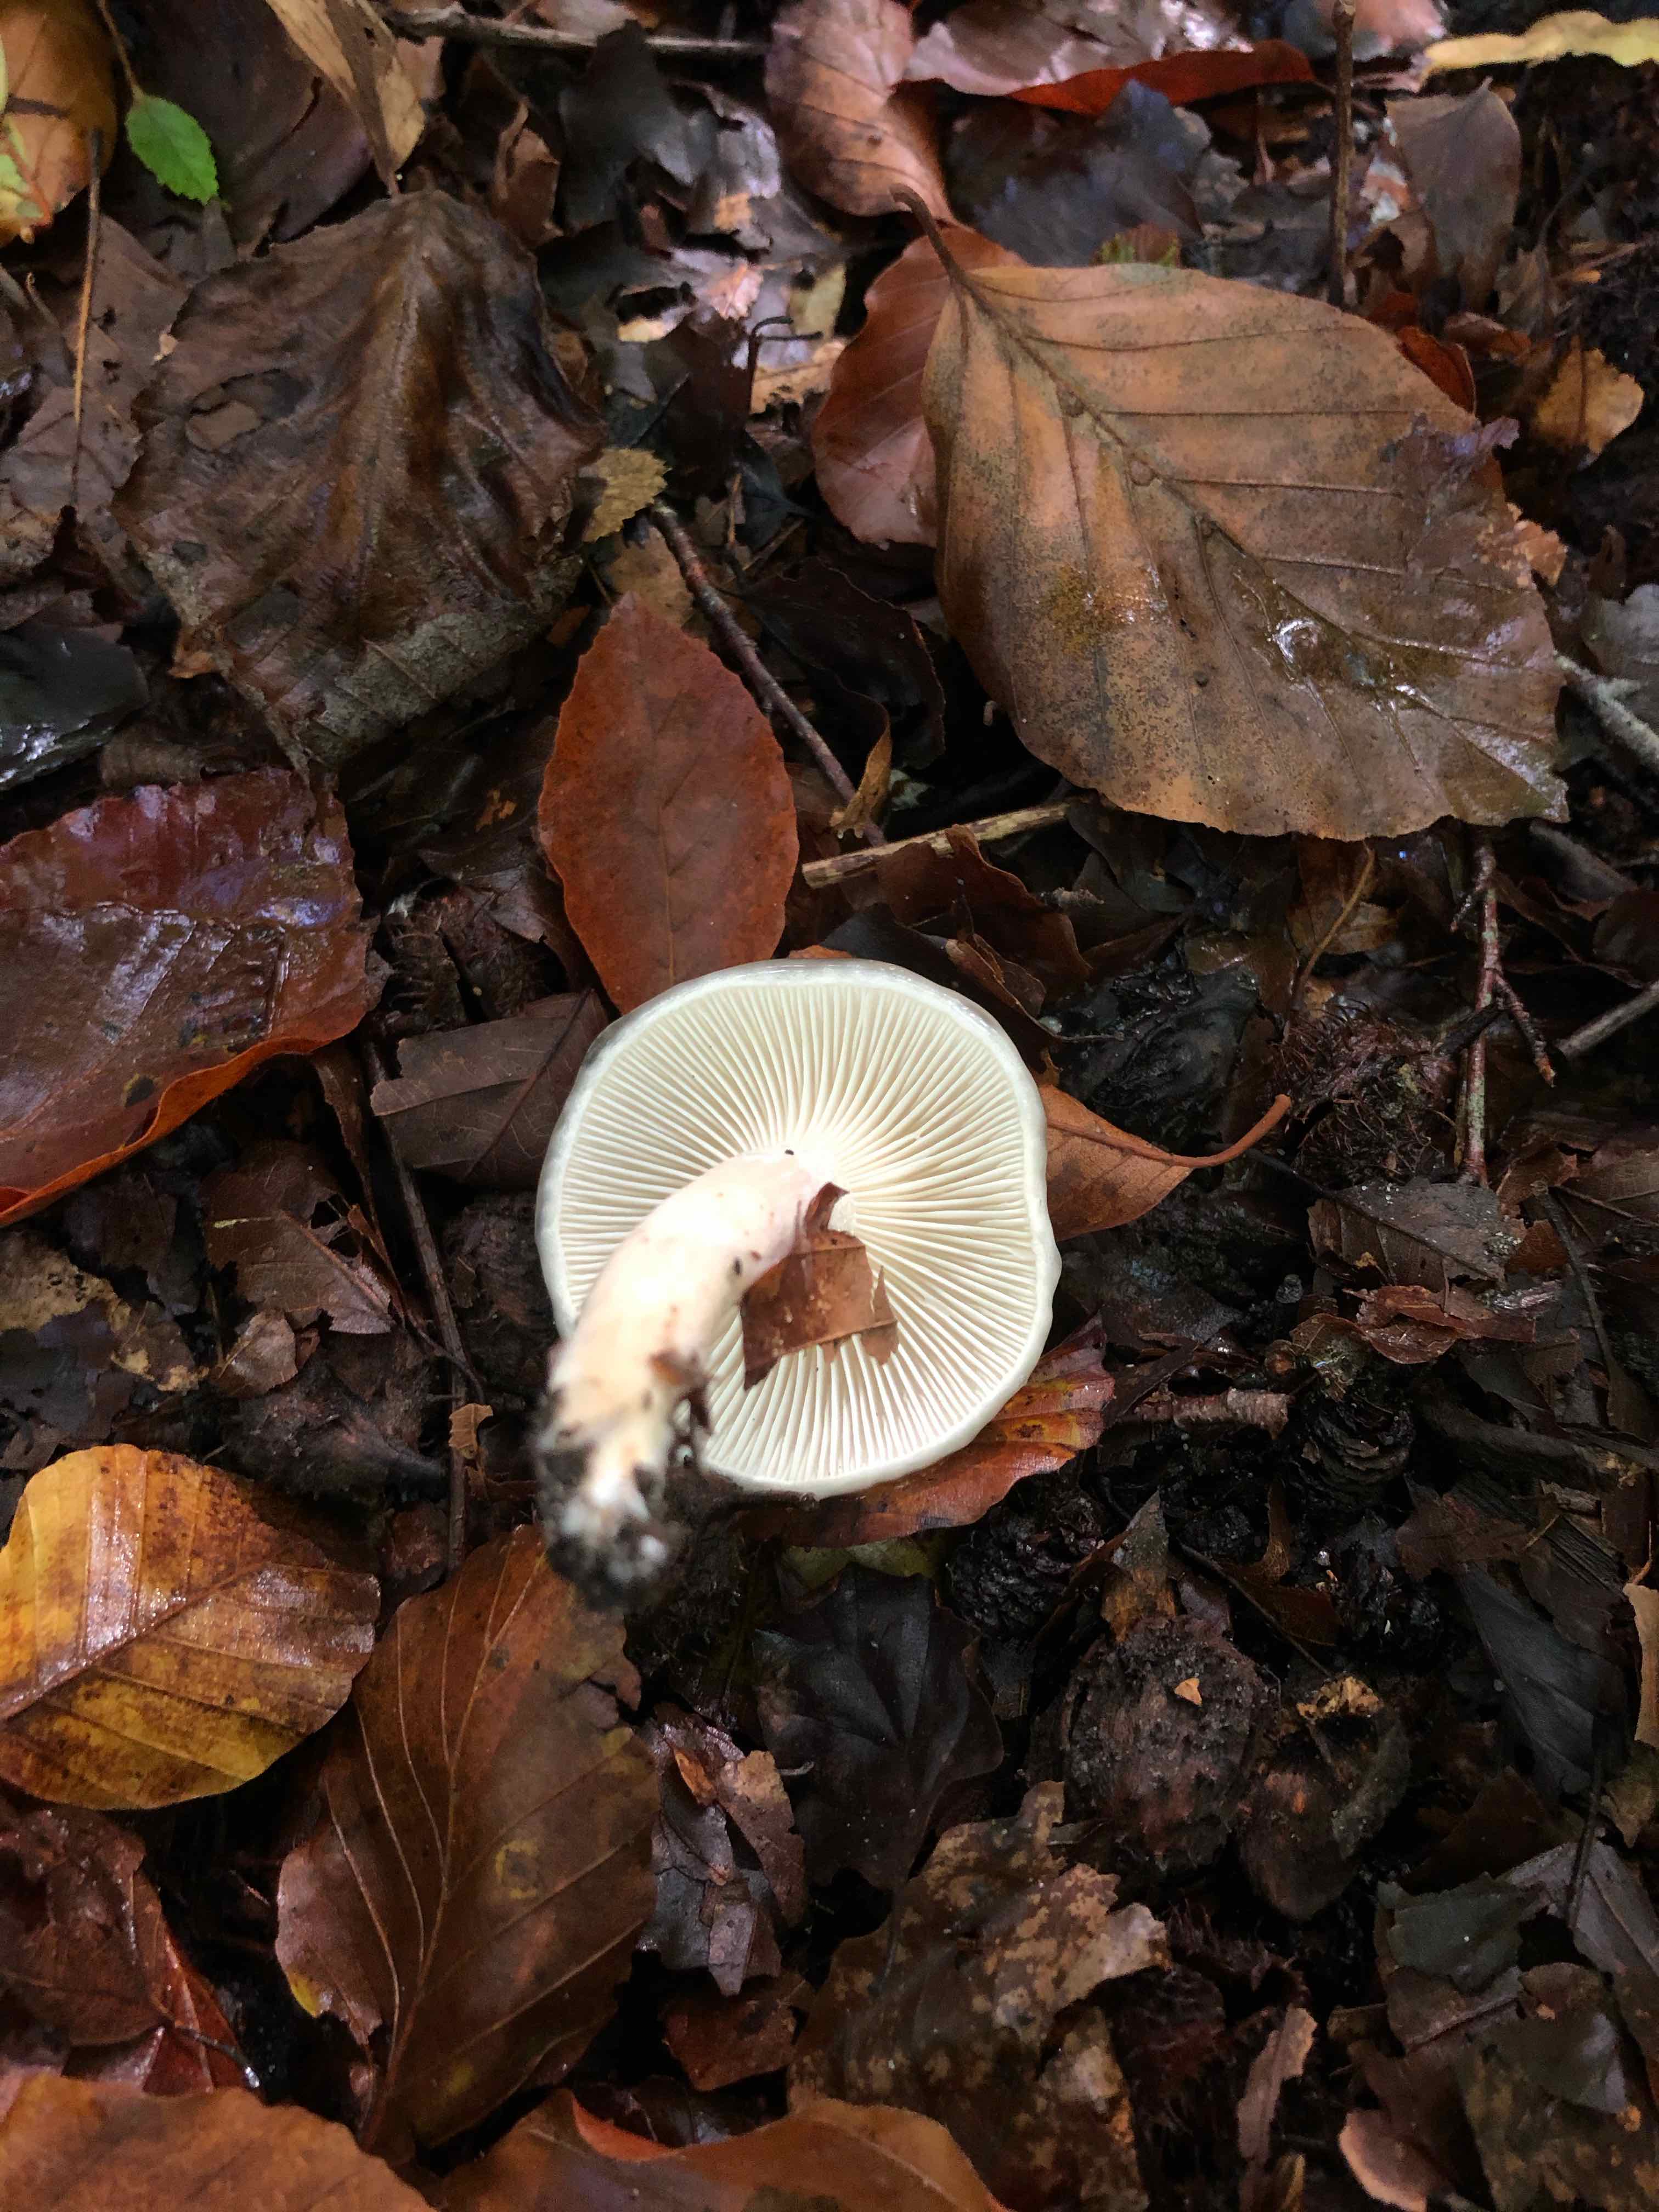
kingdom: Fungi
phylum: Basidiomycota
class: Agaricomycetes
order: Agaricales
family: Hygrophoraceae
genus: Hygrophorus
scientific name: Hygrophorus eburneus
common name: elfenbens-sneglehat
